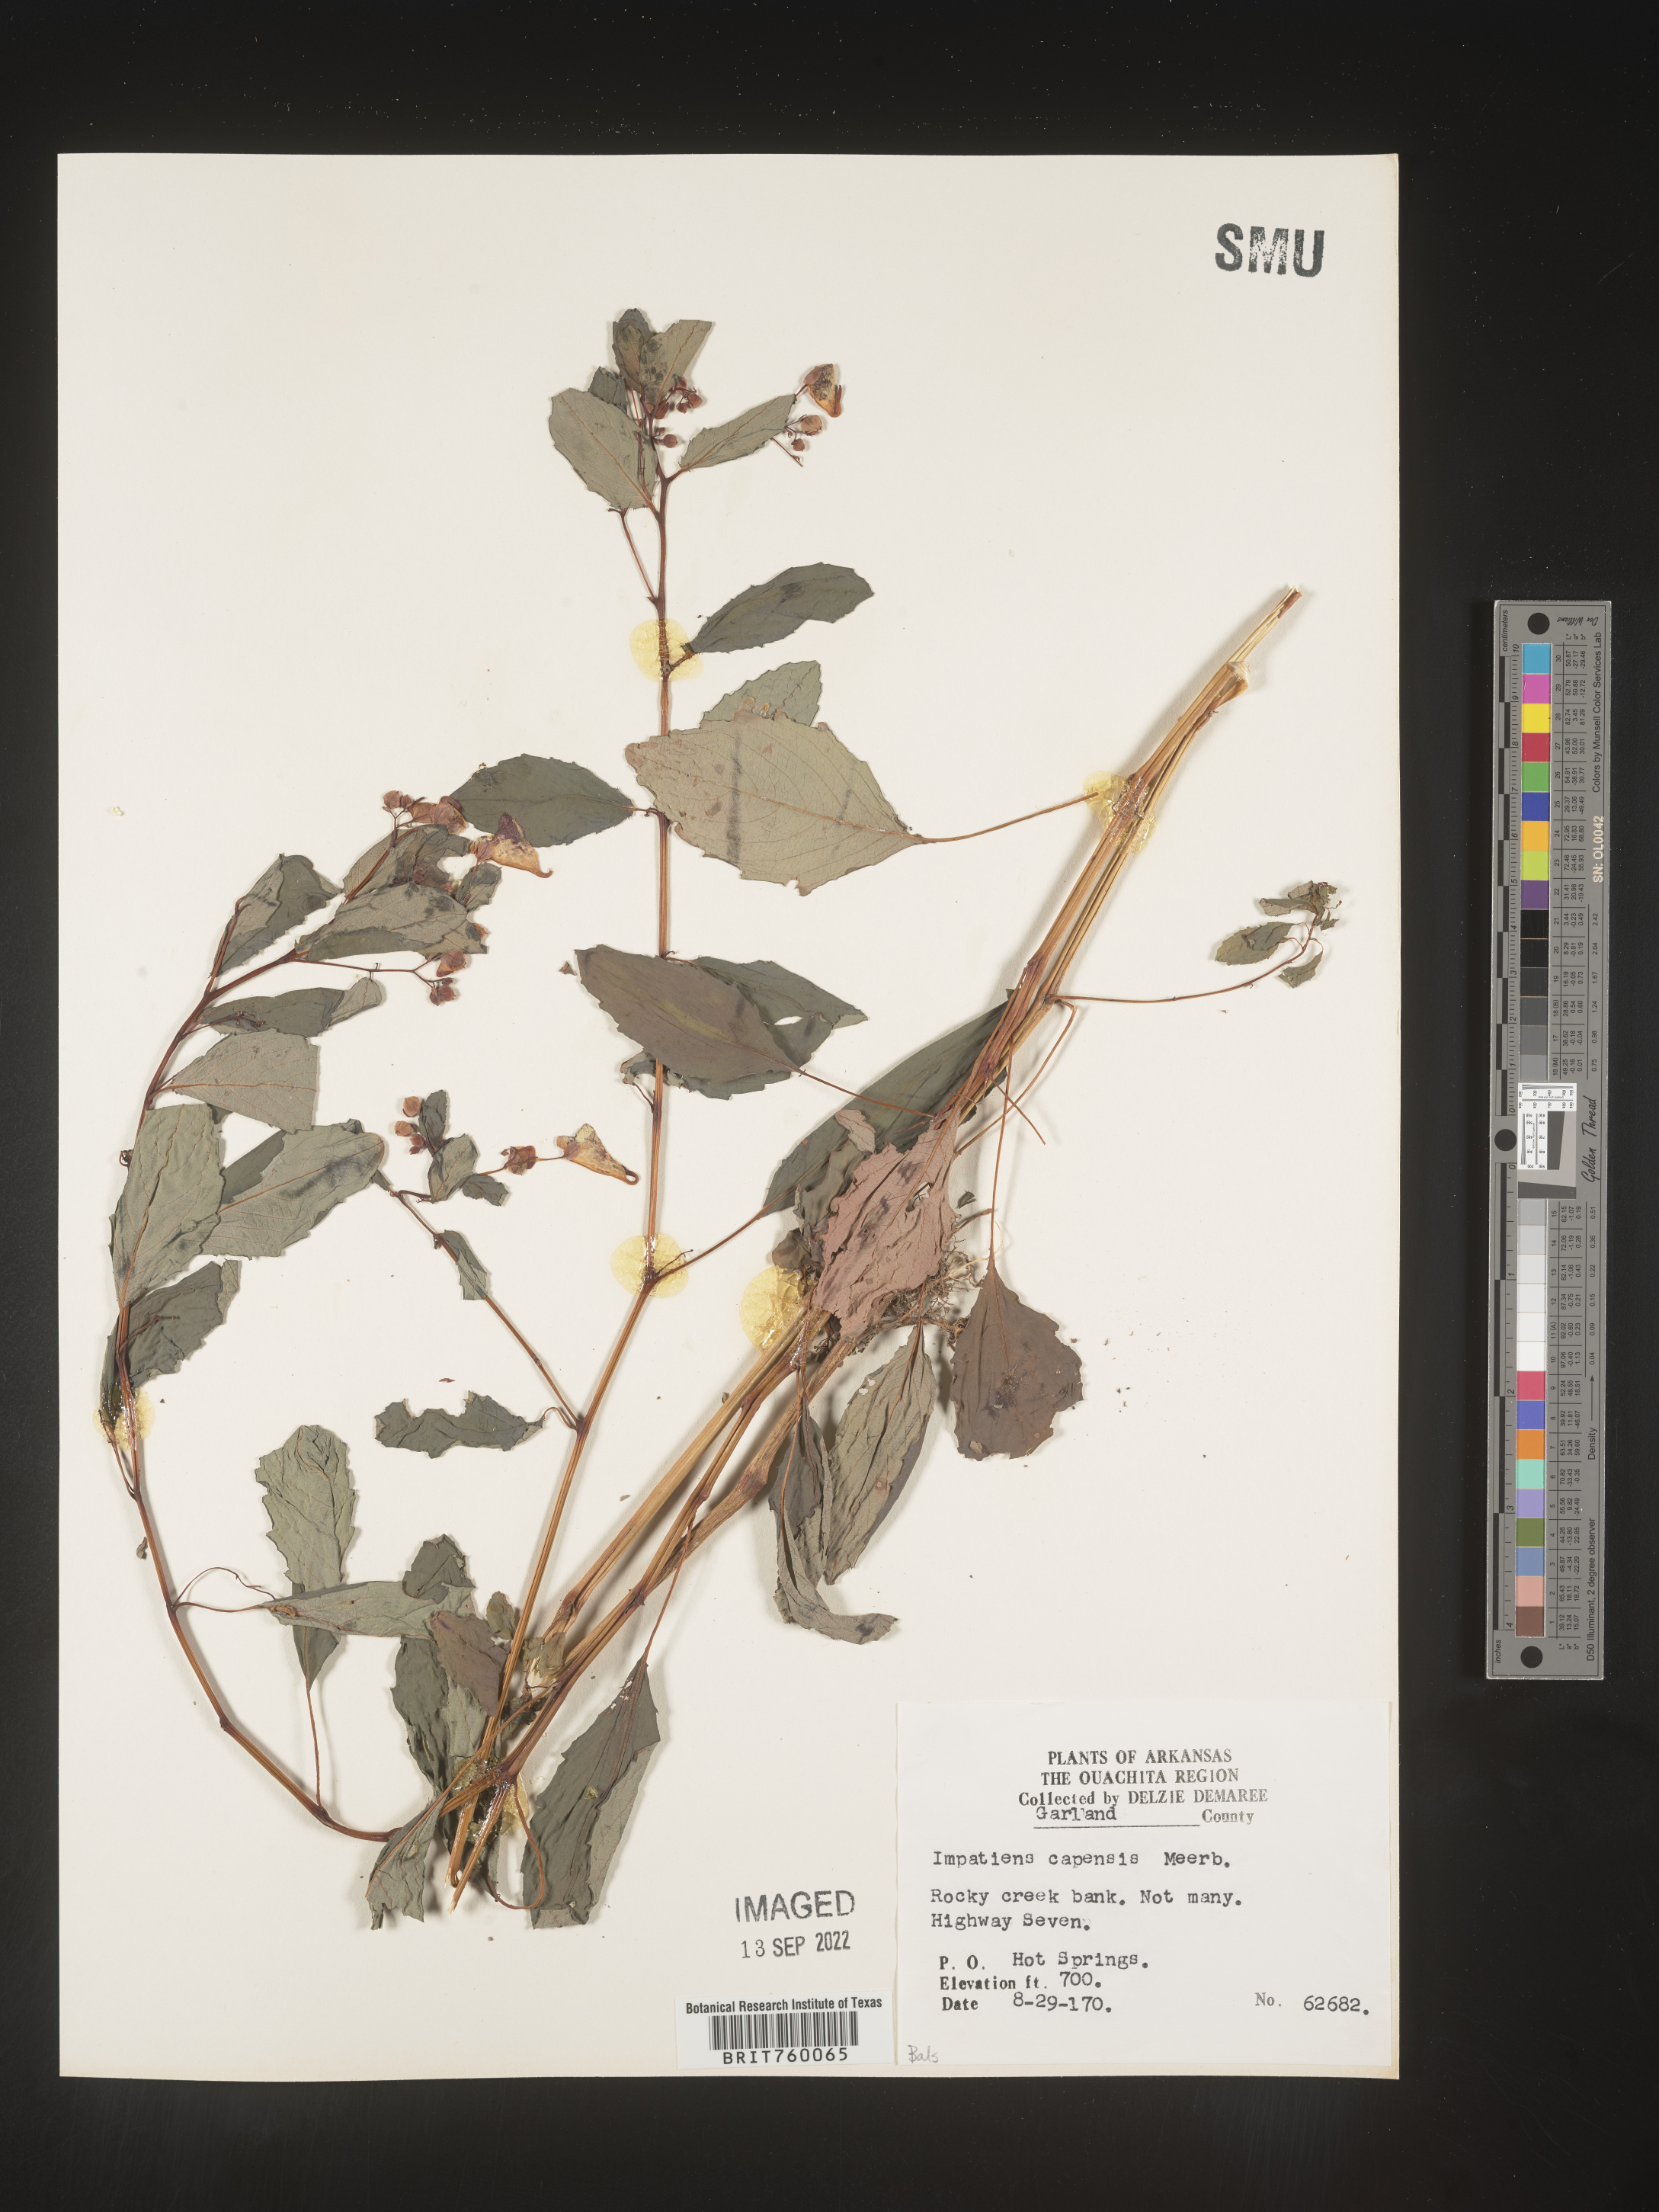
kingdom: Plantae
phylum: Tracheophyta
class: Magnoliopsida
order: Ericales
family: Balsaminaceae
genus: Impatiens
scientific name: Impatiens capensis
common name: Orange balsam
